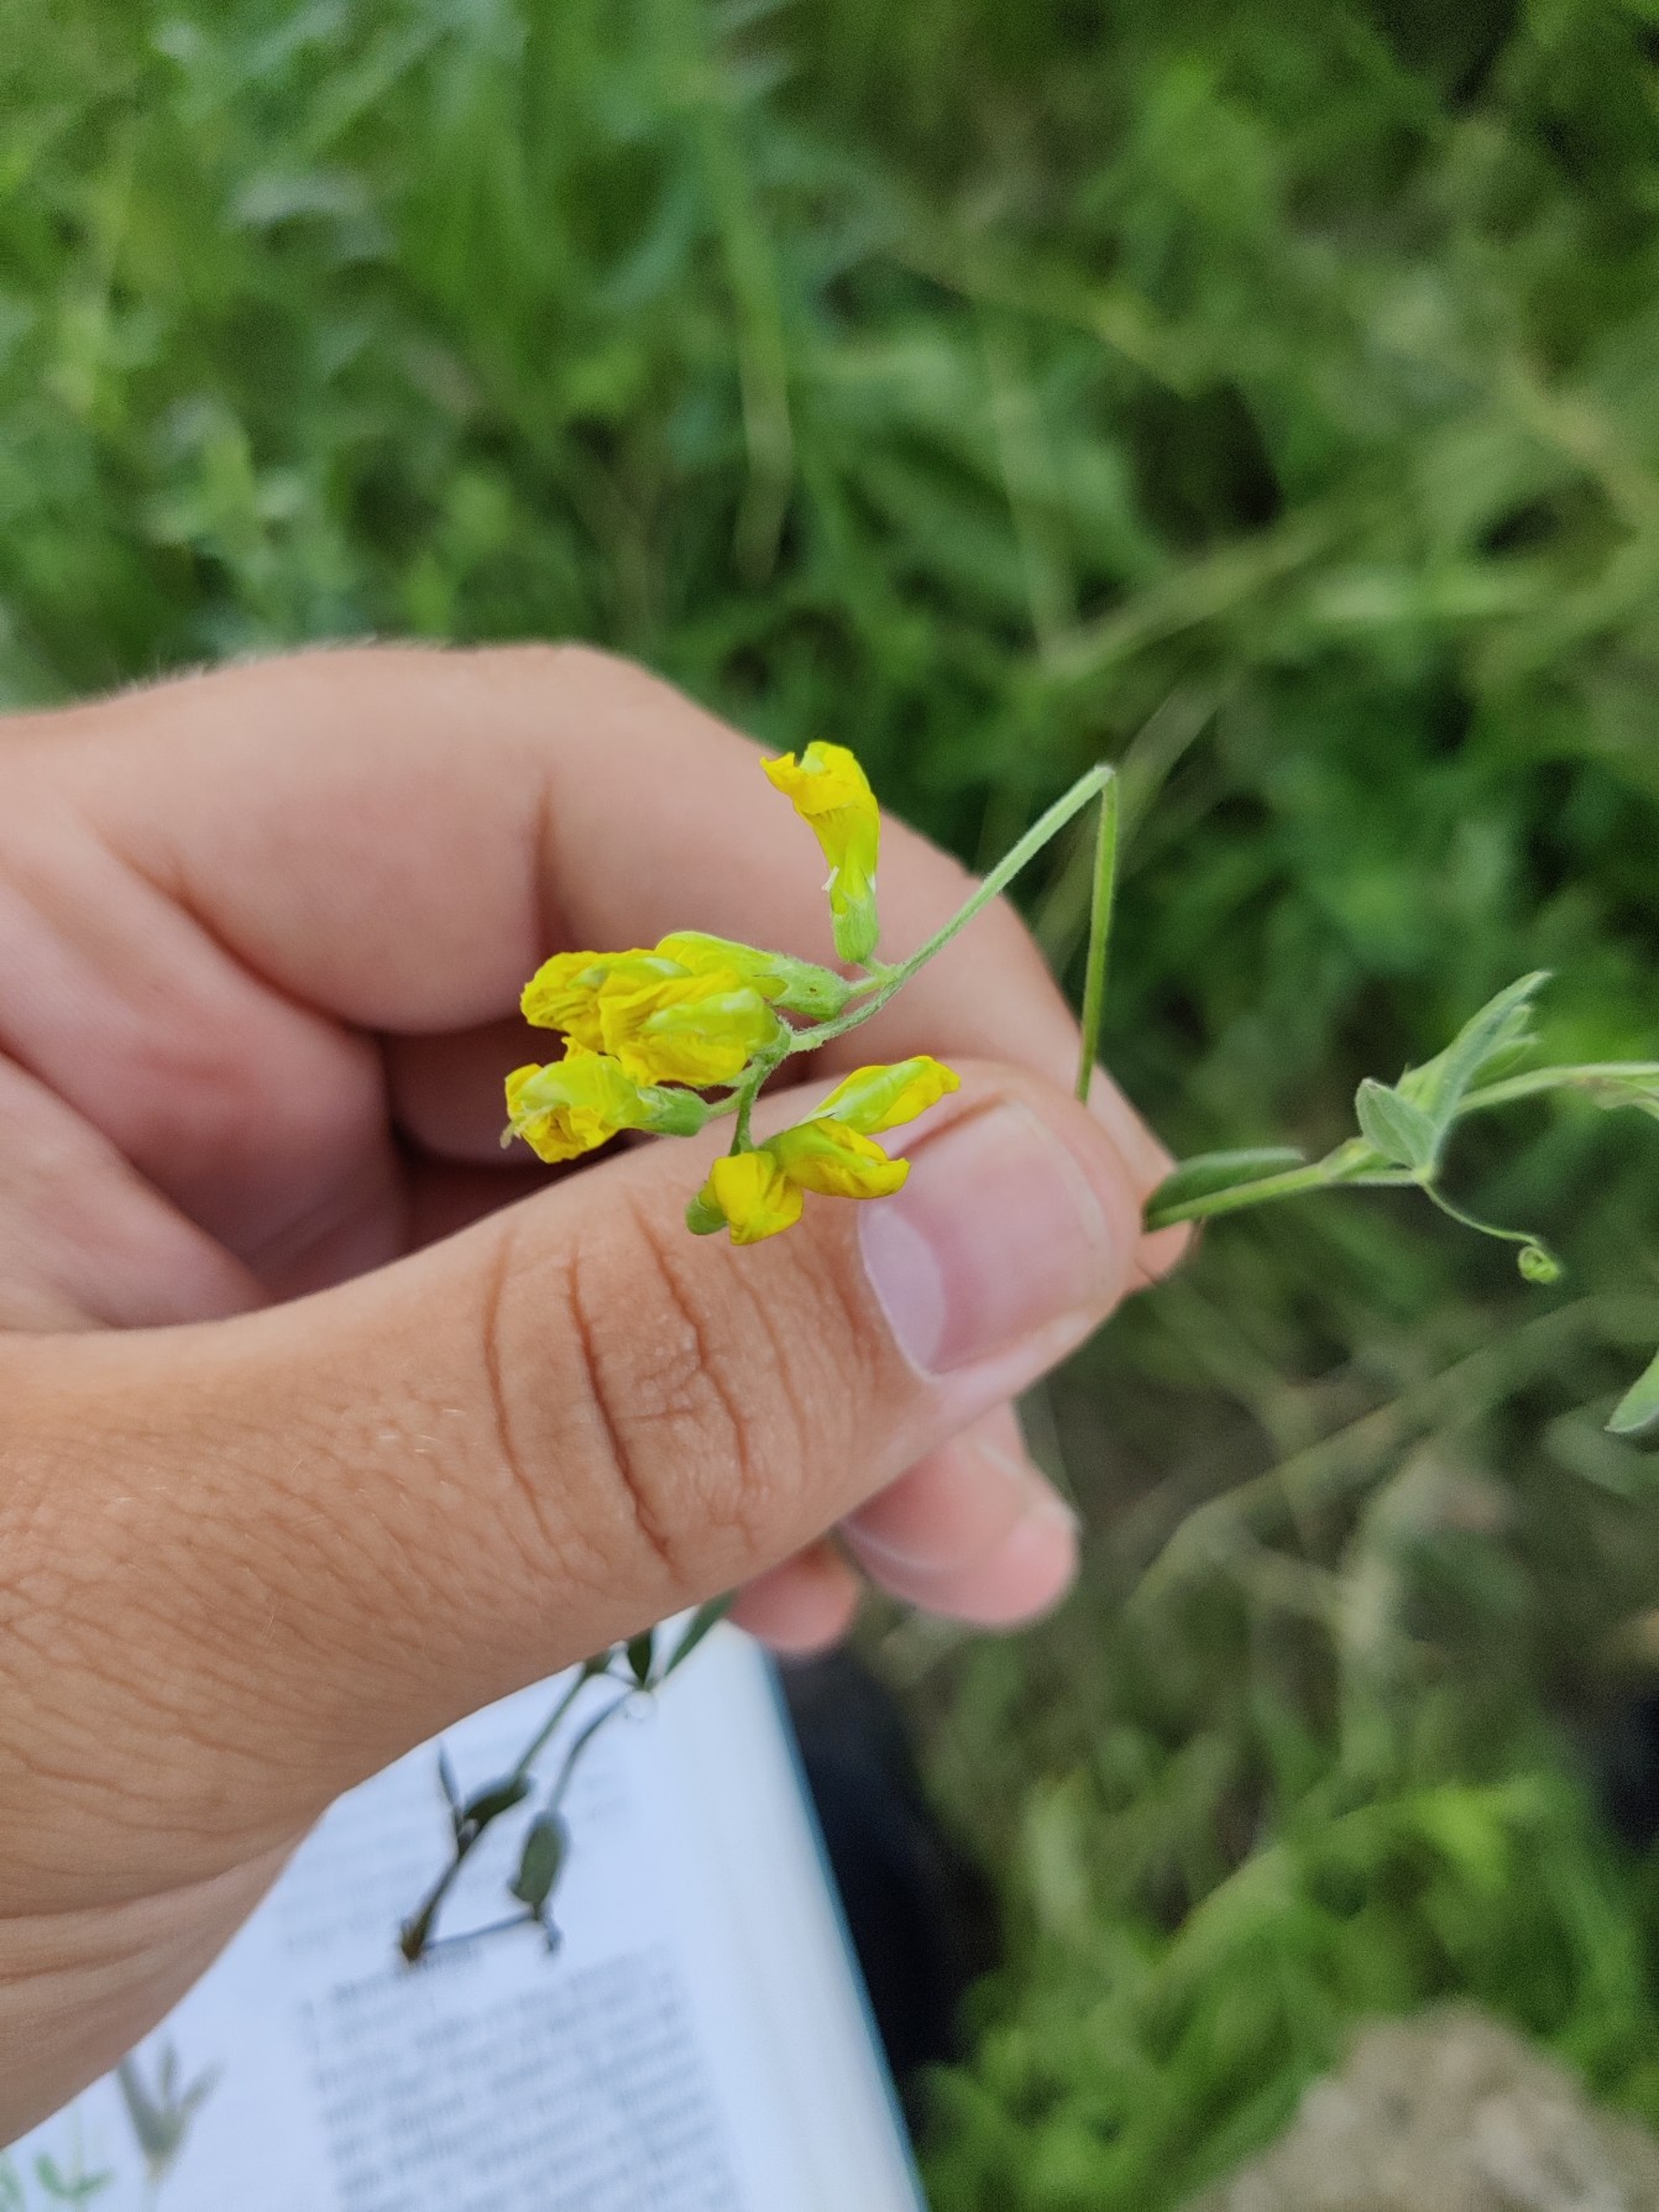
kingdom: Plantae
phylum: Tracheophyta
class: Magnoliopsida
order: Fabales
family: Fabaceae
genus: Lathyrus
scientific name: Lathyrus pratensis
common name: Gul fladbælg
